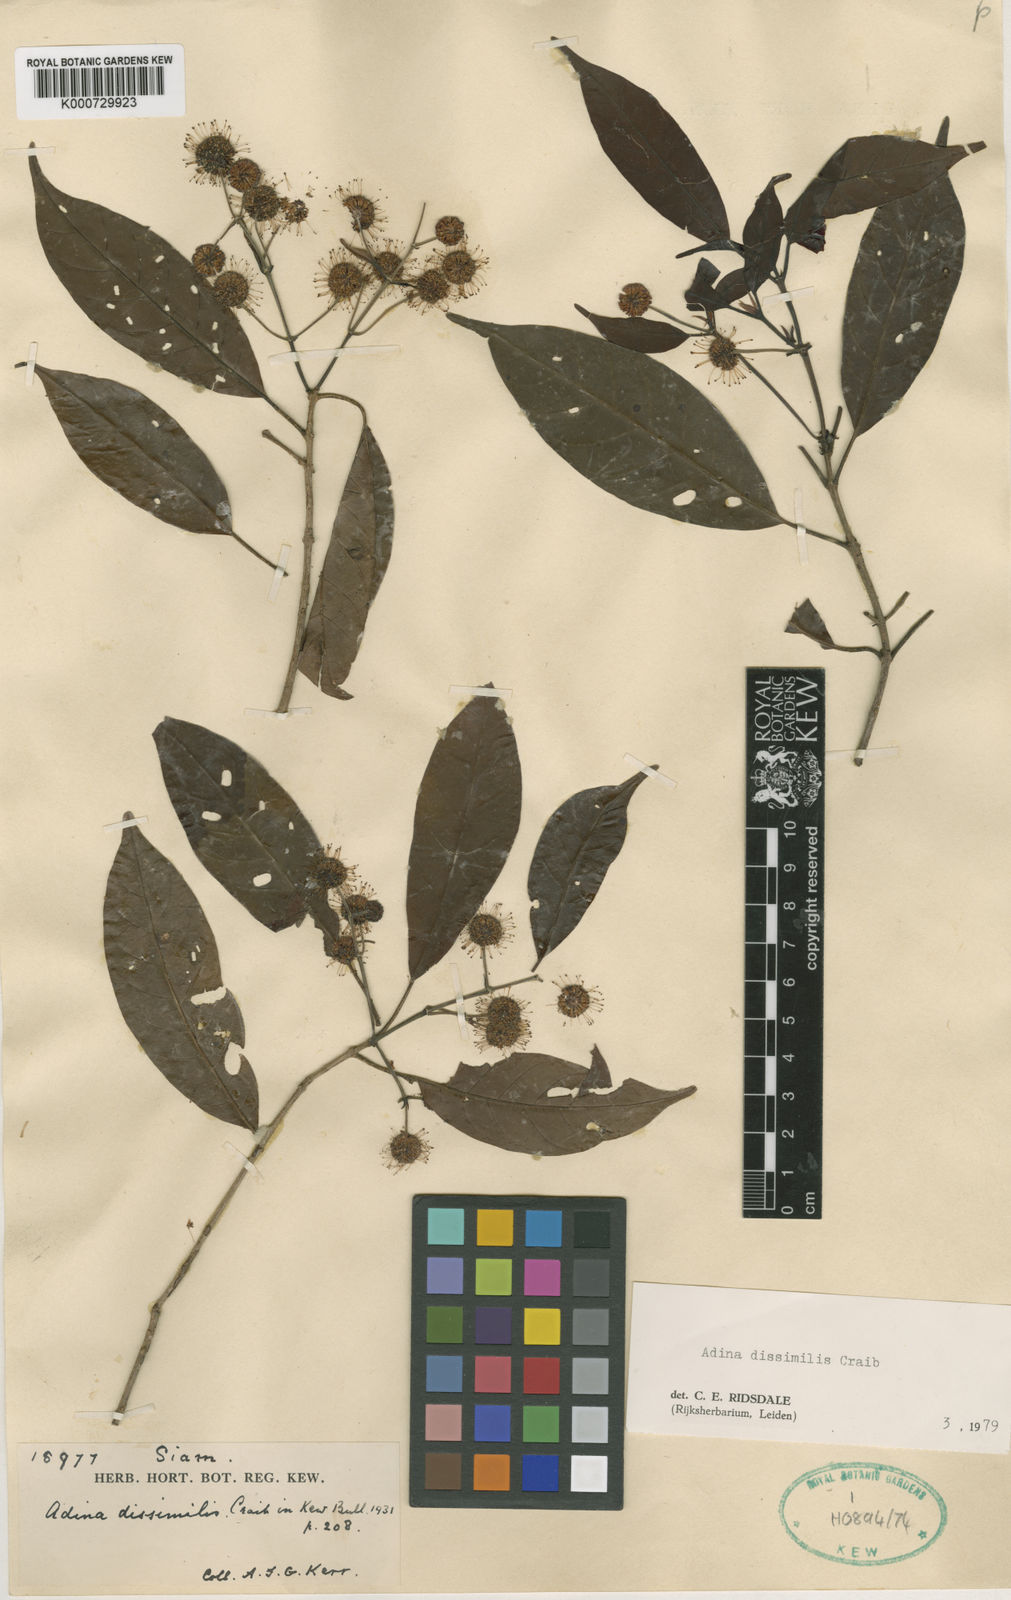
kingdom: Plantae
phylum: Tracheophyta
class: Magnoliopsida
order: Gentianales
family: Rubiaceae
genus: Adina
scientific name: Adina dissimilis
